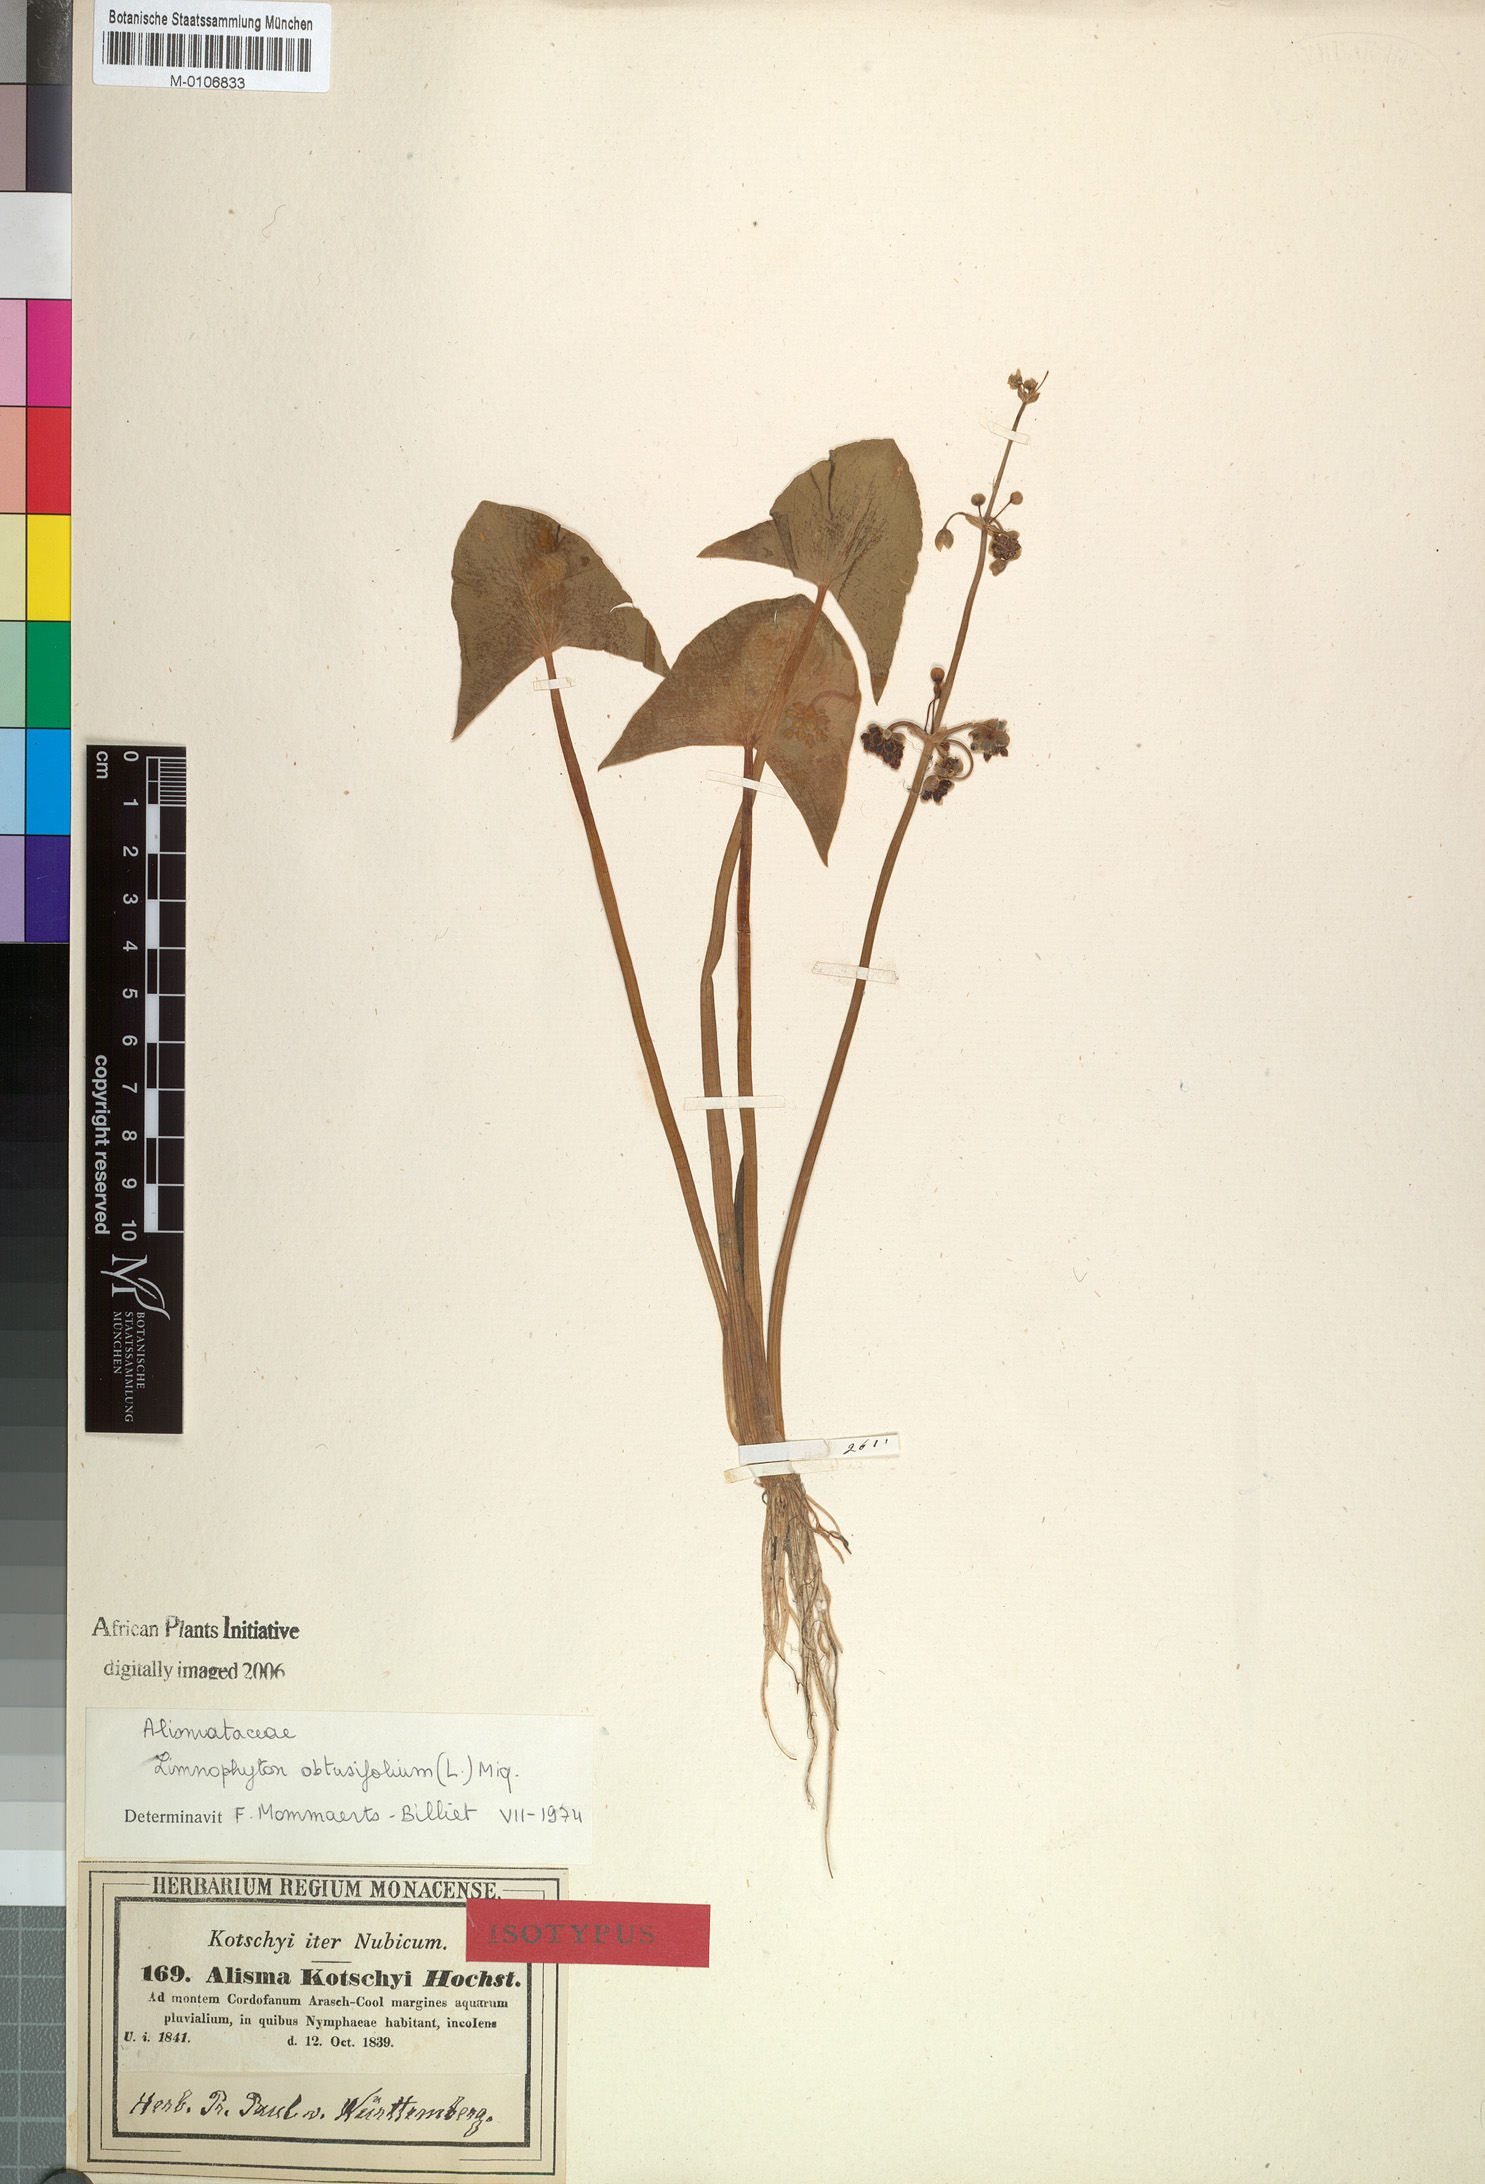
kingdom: Plantae
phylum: Tracheophyta
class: Liliopsida
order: Alismatales
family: Alismataceae
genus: Limnophyton
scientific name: Limnophyton obtusifolium
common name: Arrow head
